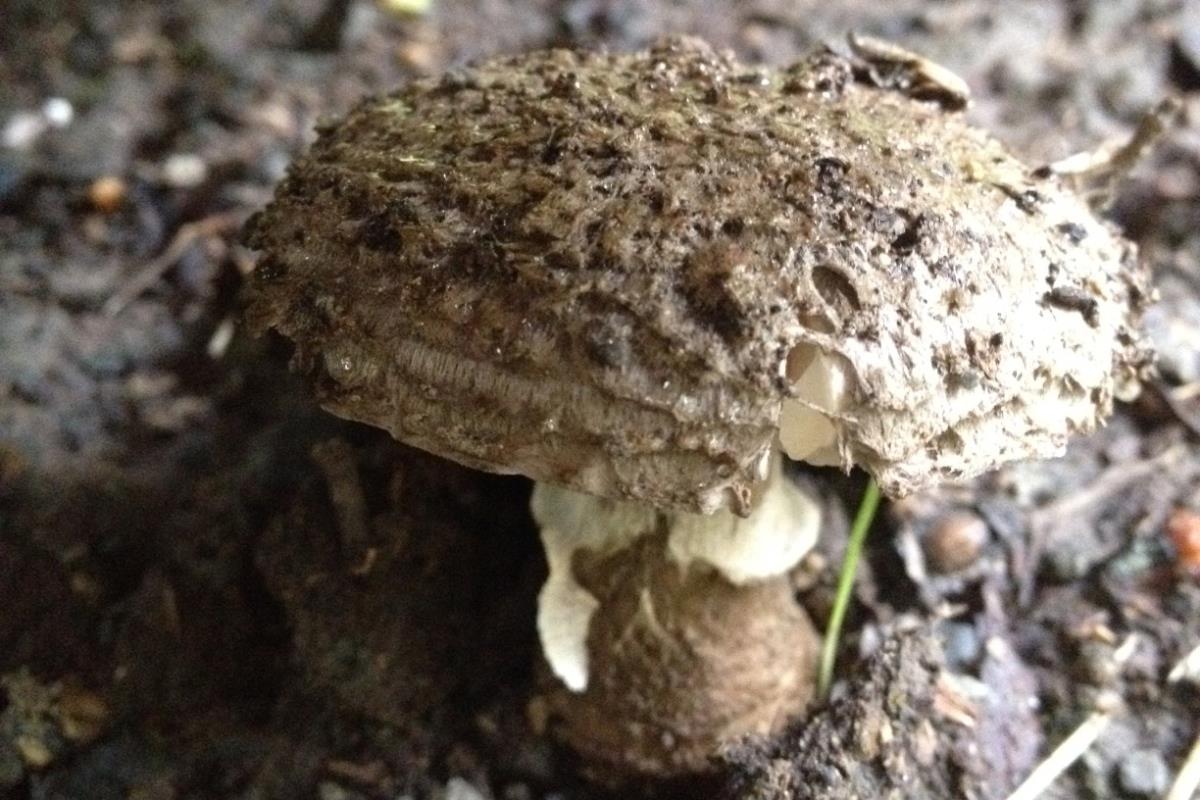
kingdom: Fungi
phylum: Basidiomycota
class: Agaricomycetes
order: Agaricales
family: Amanitaceae
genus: Amanita
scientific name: Amanita inopinata
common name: Surprise amanita
